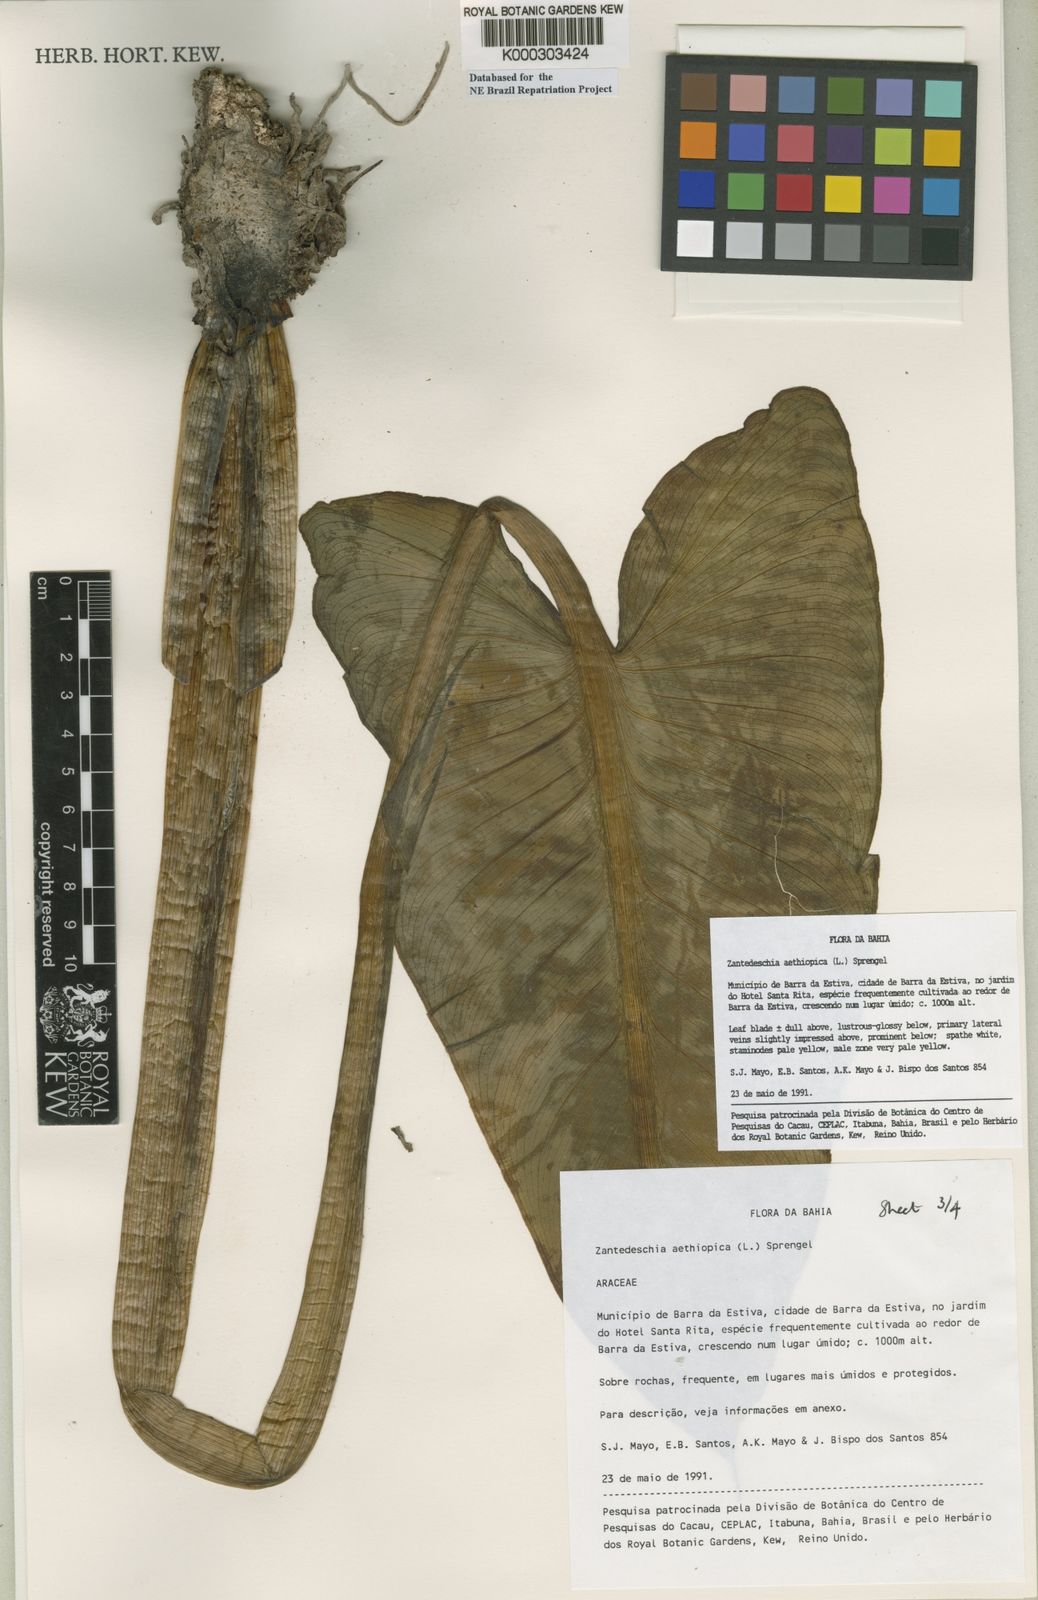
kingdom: Plantae
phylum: Tracheophyta
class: Liliopsida
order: Alismatales
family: Araceae
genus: Zantedeschia
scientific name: Zantedeschia aethiopica
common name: Altar-lily
